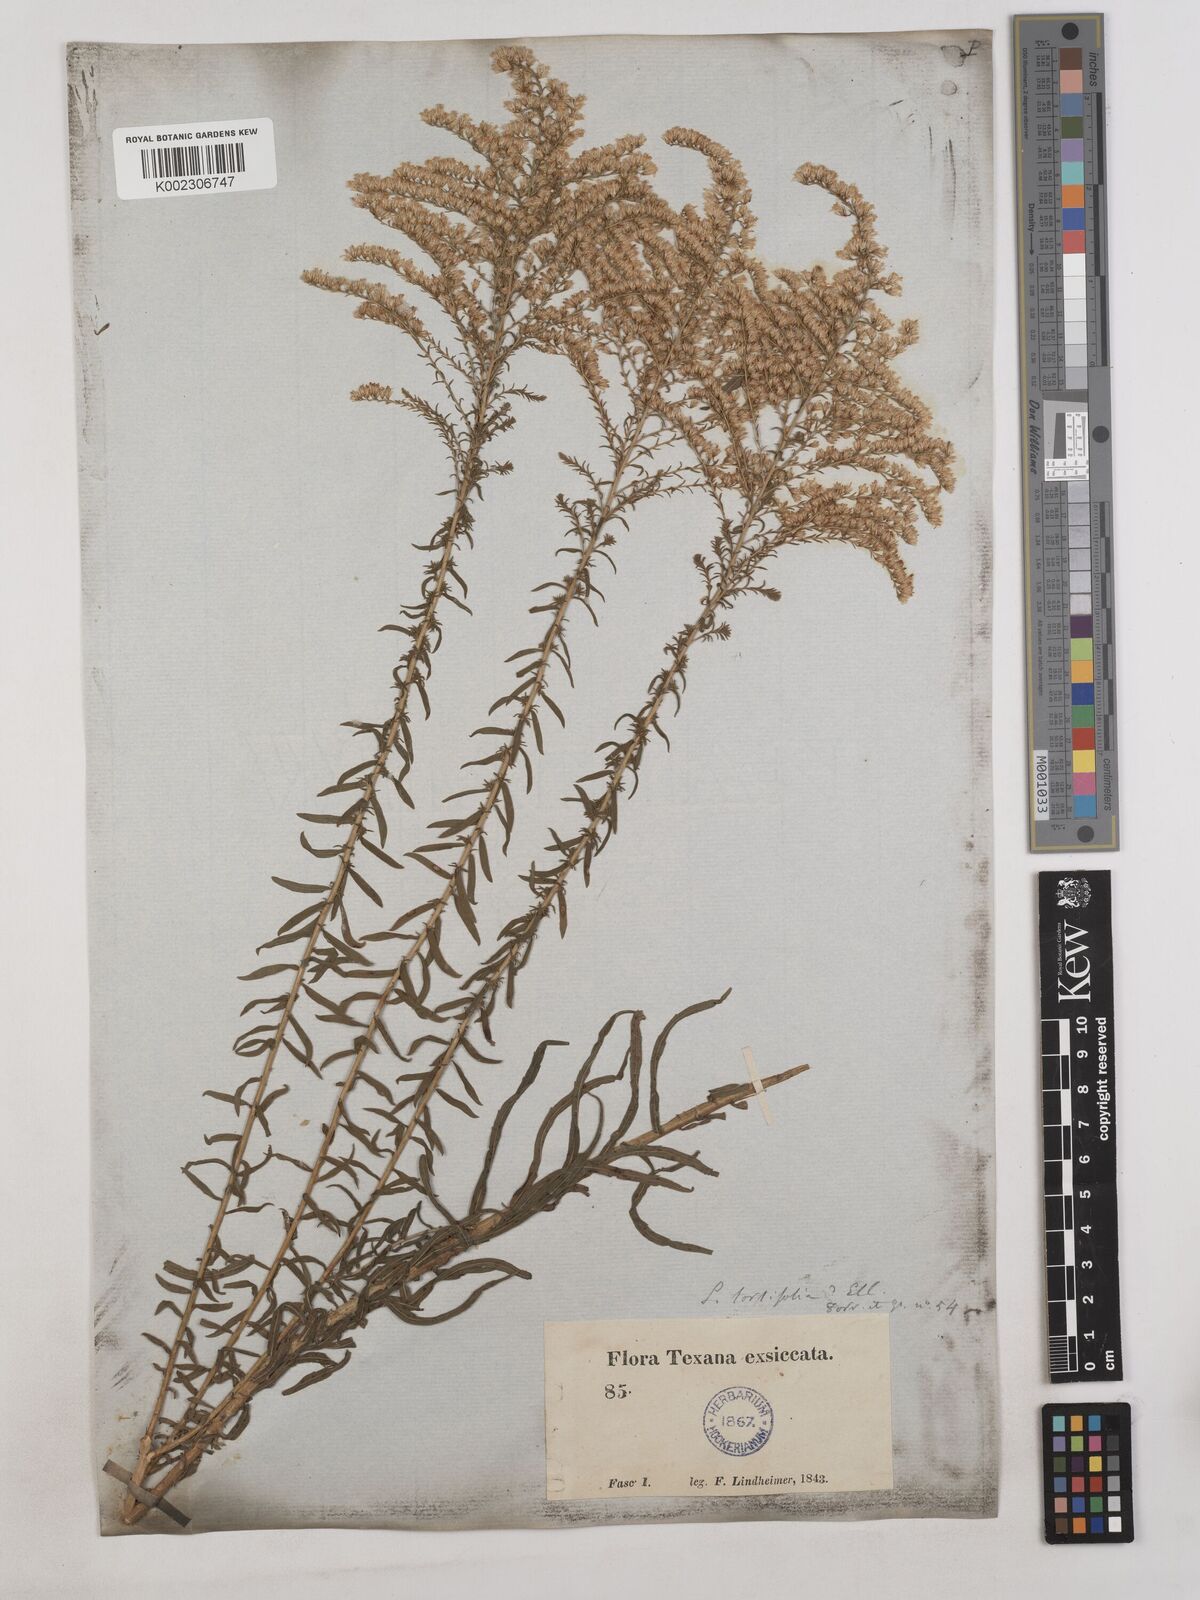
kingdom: Plantae
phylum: Tracheophyta
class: Magnoliopsida
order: Asterales
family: Asteraceae
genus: Solidago
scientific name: Solidago tortifolia
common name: Twisted-leaf goldenrod
